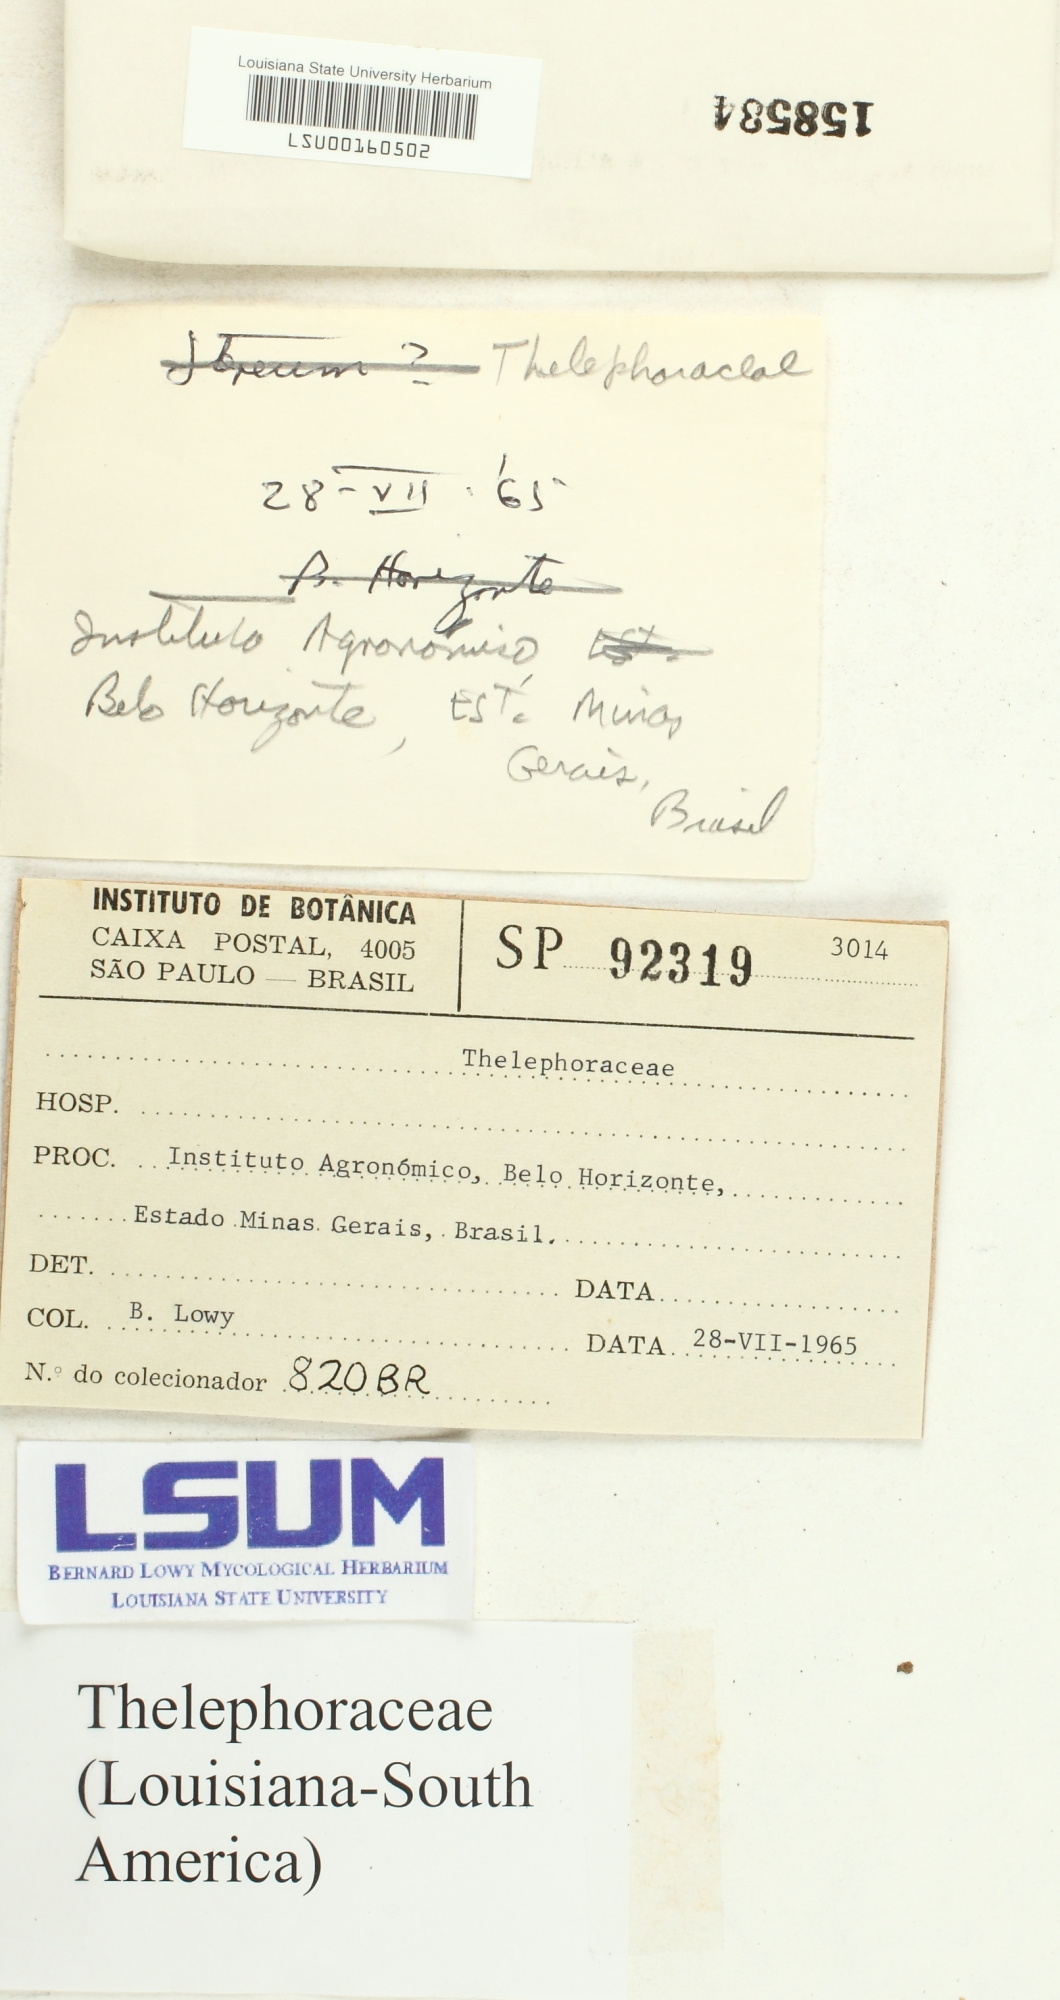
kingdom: Fungi
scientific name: Fungi
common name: Fungi
